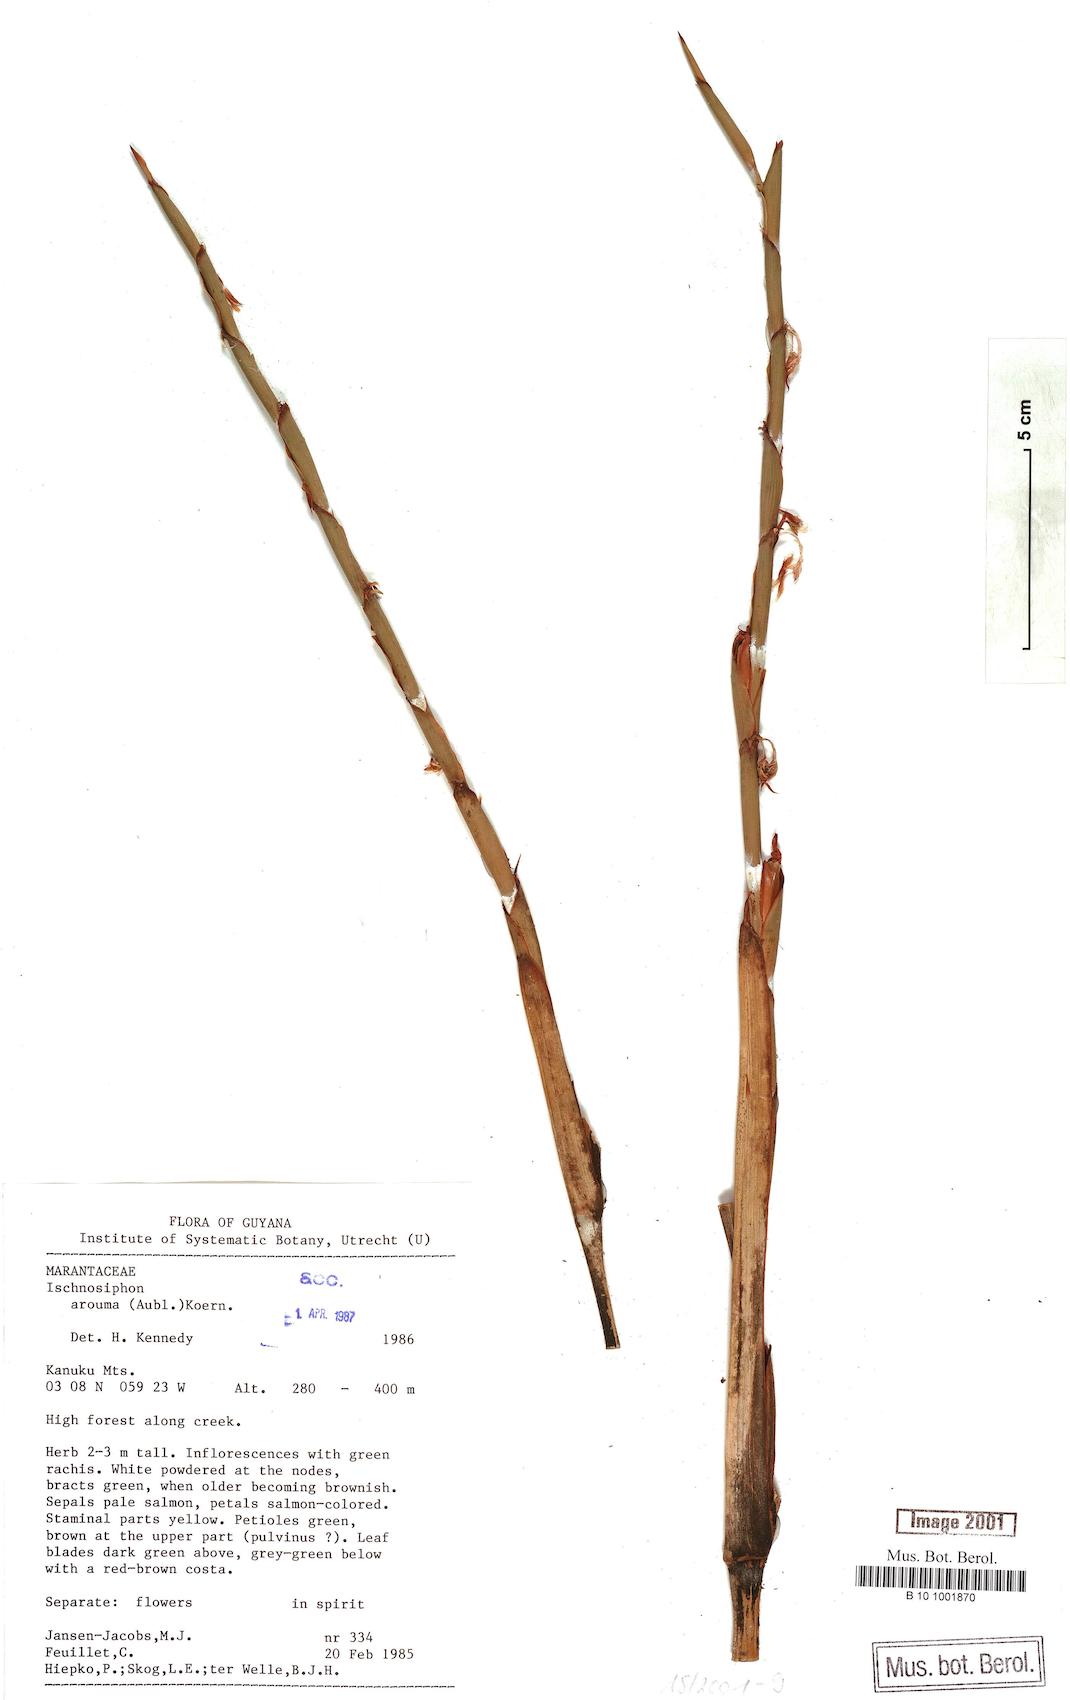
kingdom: Plantae
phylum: Tracheophyta
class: Liliopsida
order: Zingiberales
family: Marantaceae
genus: Ischnosiphon
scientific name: Ischnosiphon arouma
